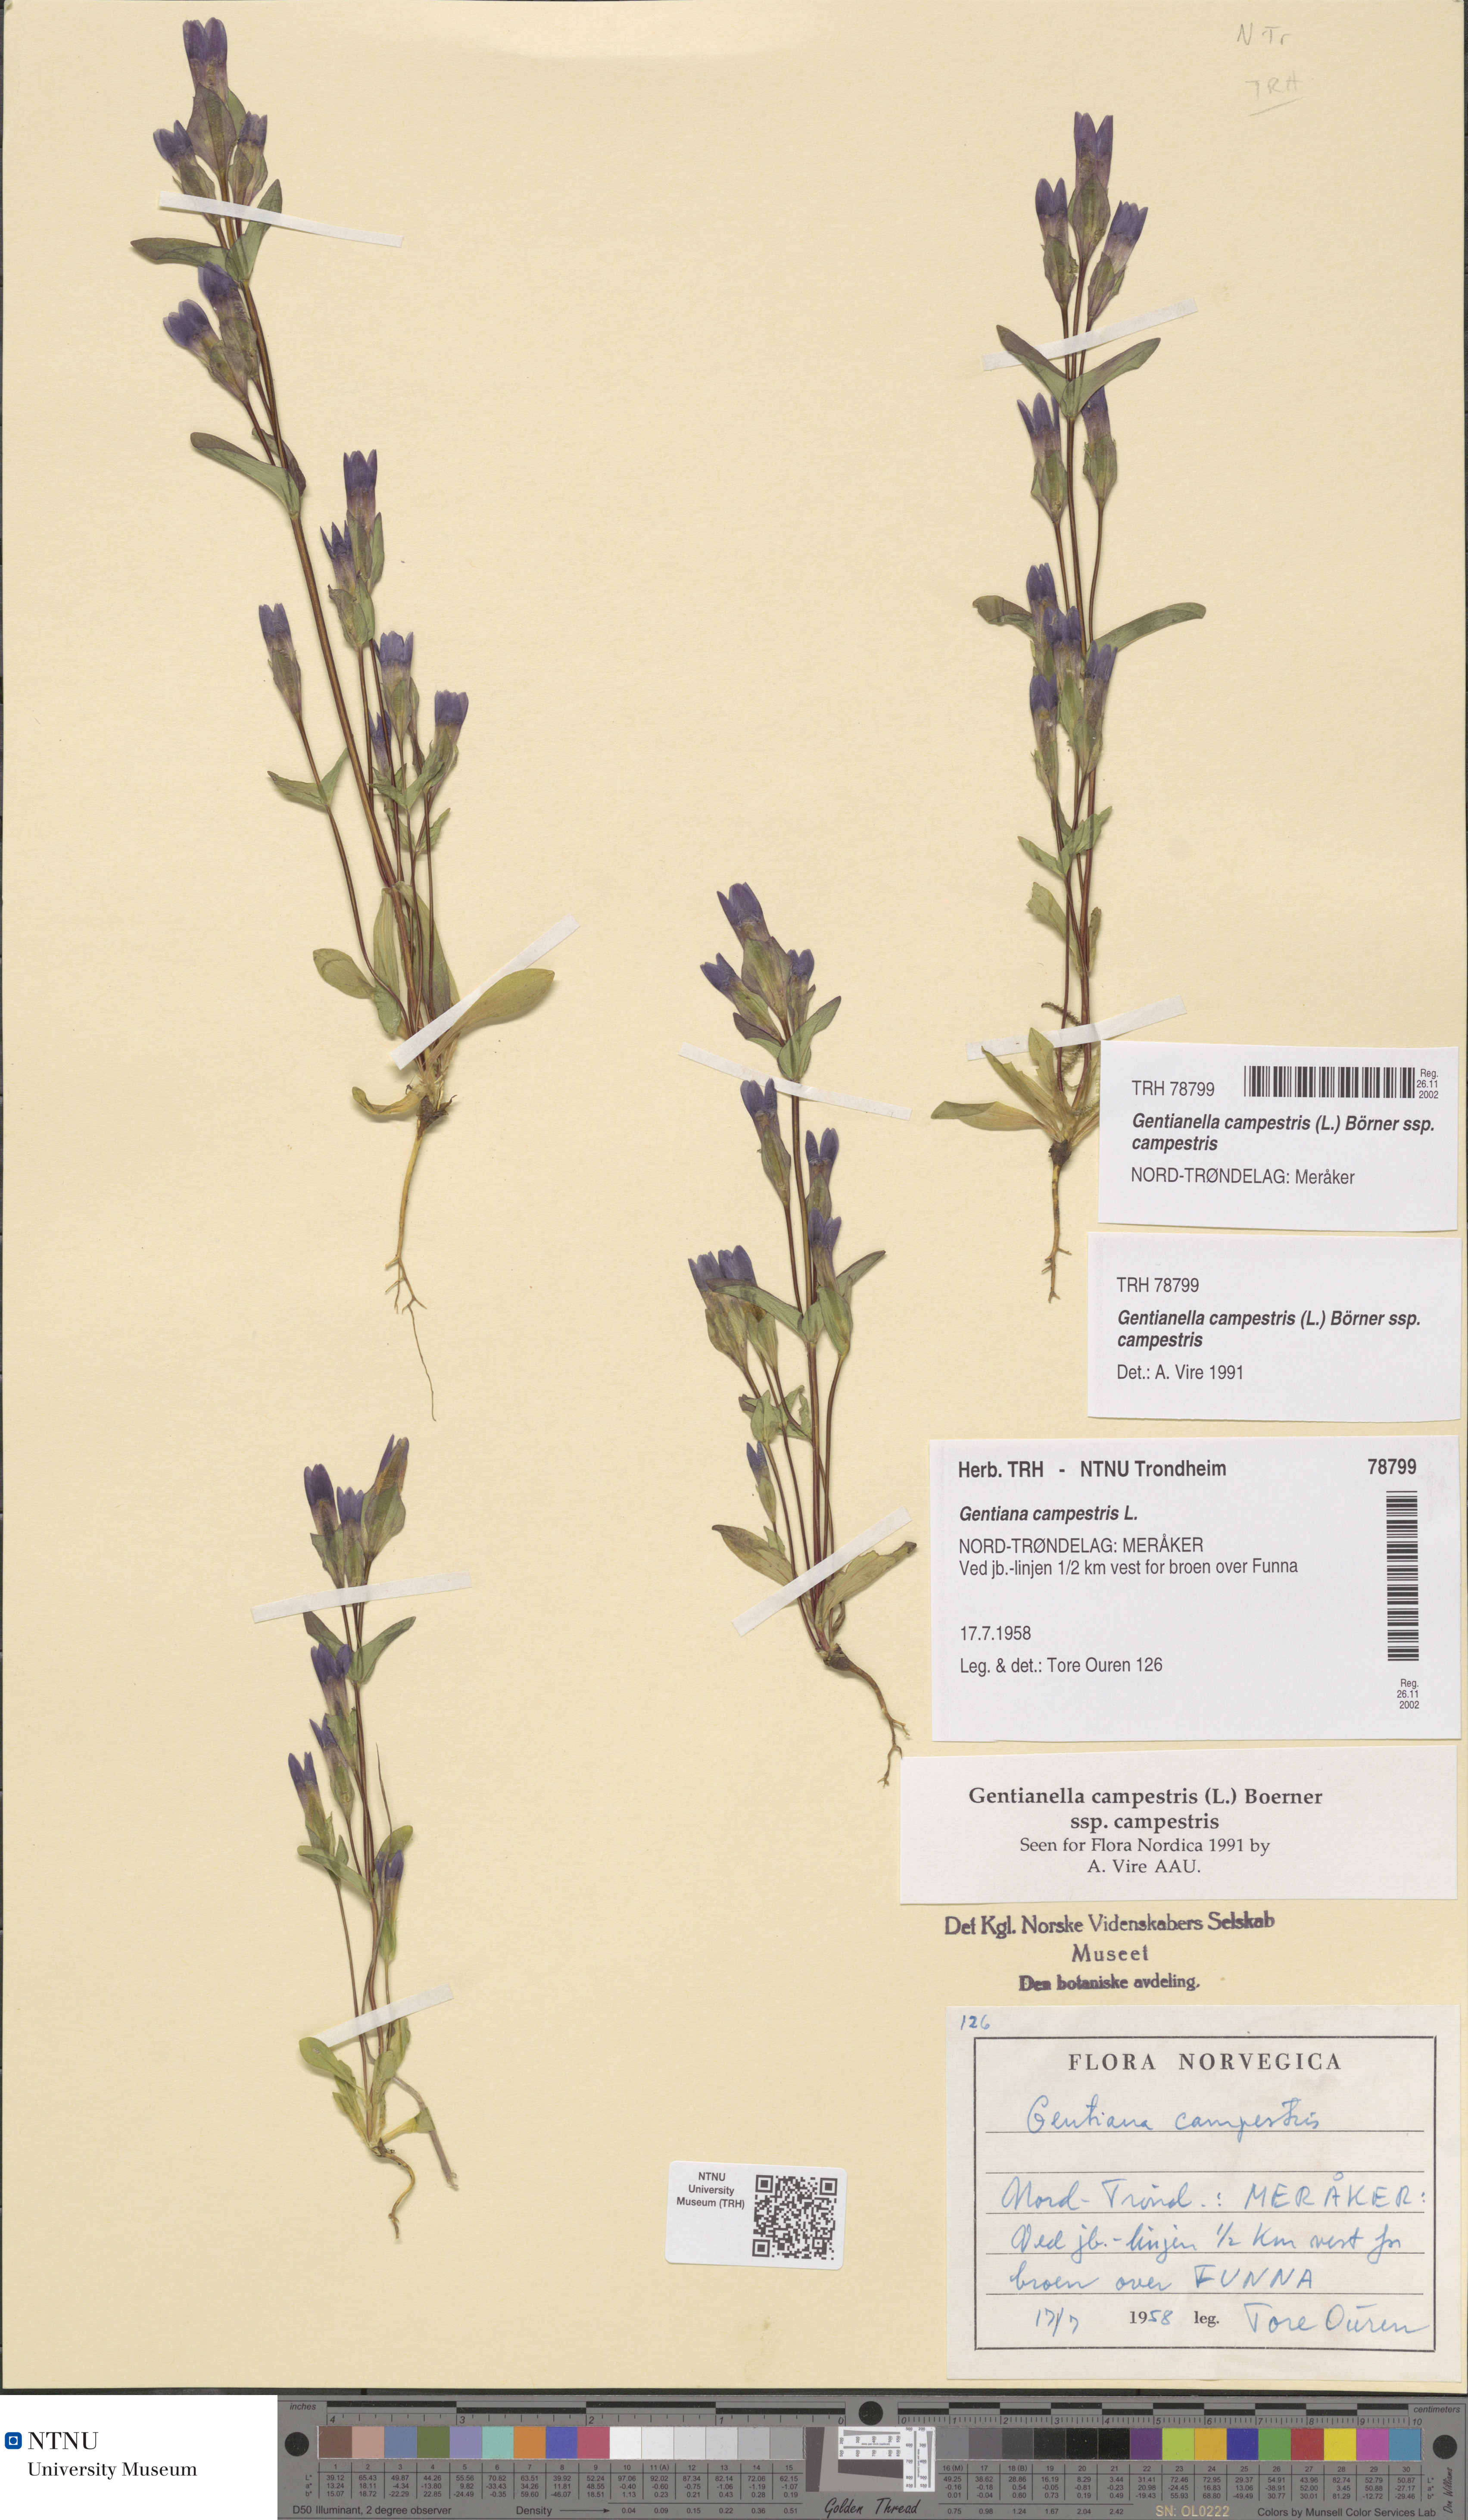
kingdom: Plantae
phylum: Tracheophyta
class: Magnoliopsida
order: Gentianales
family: Gentianaceae
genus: Gentianella
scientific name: Gentianella campestris
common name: Field gentian
